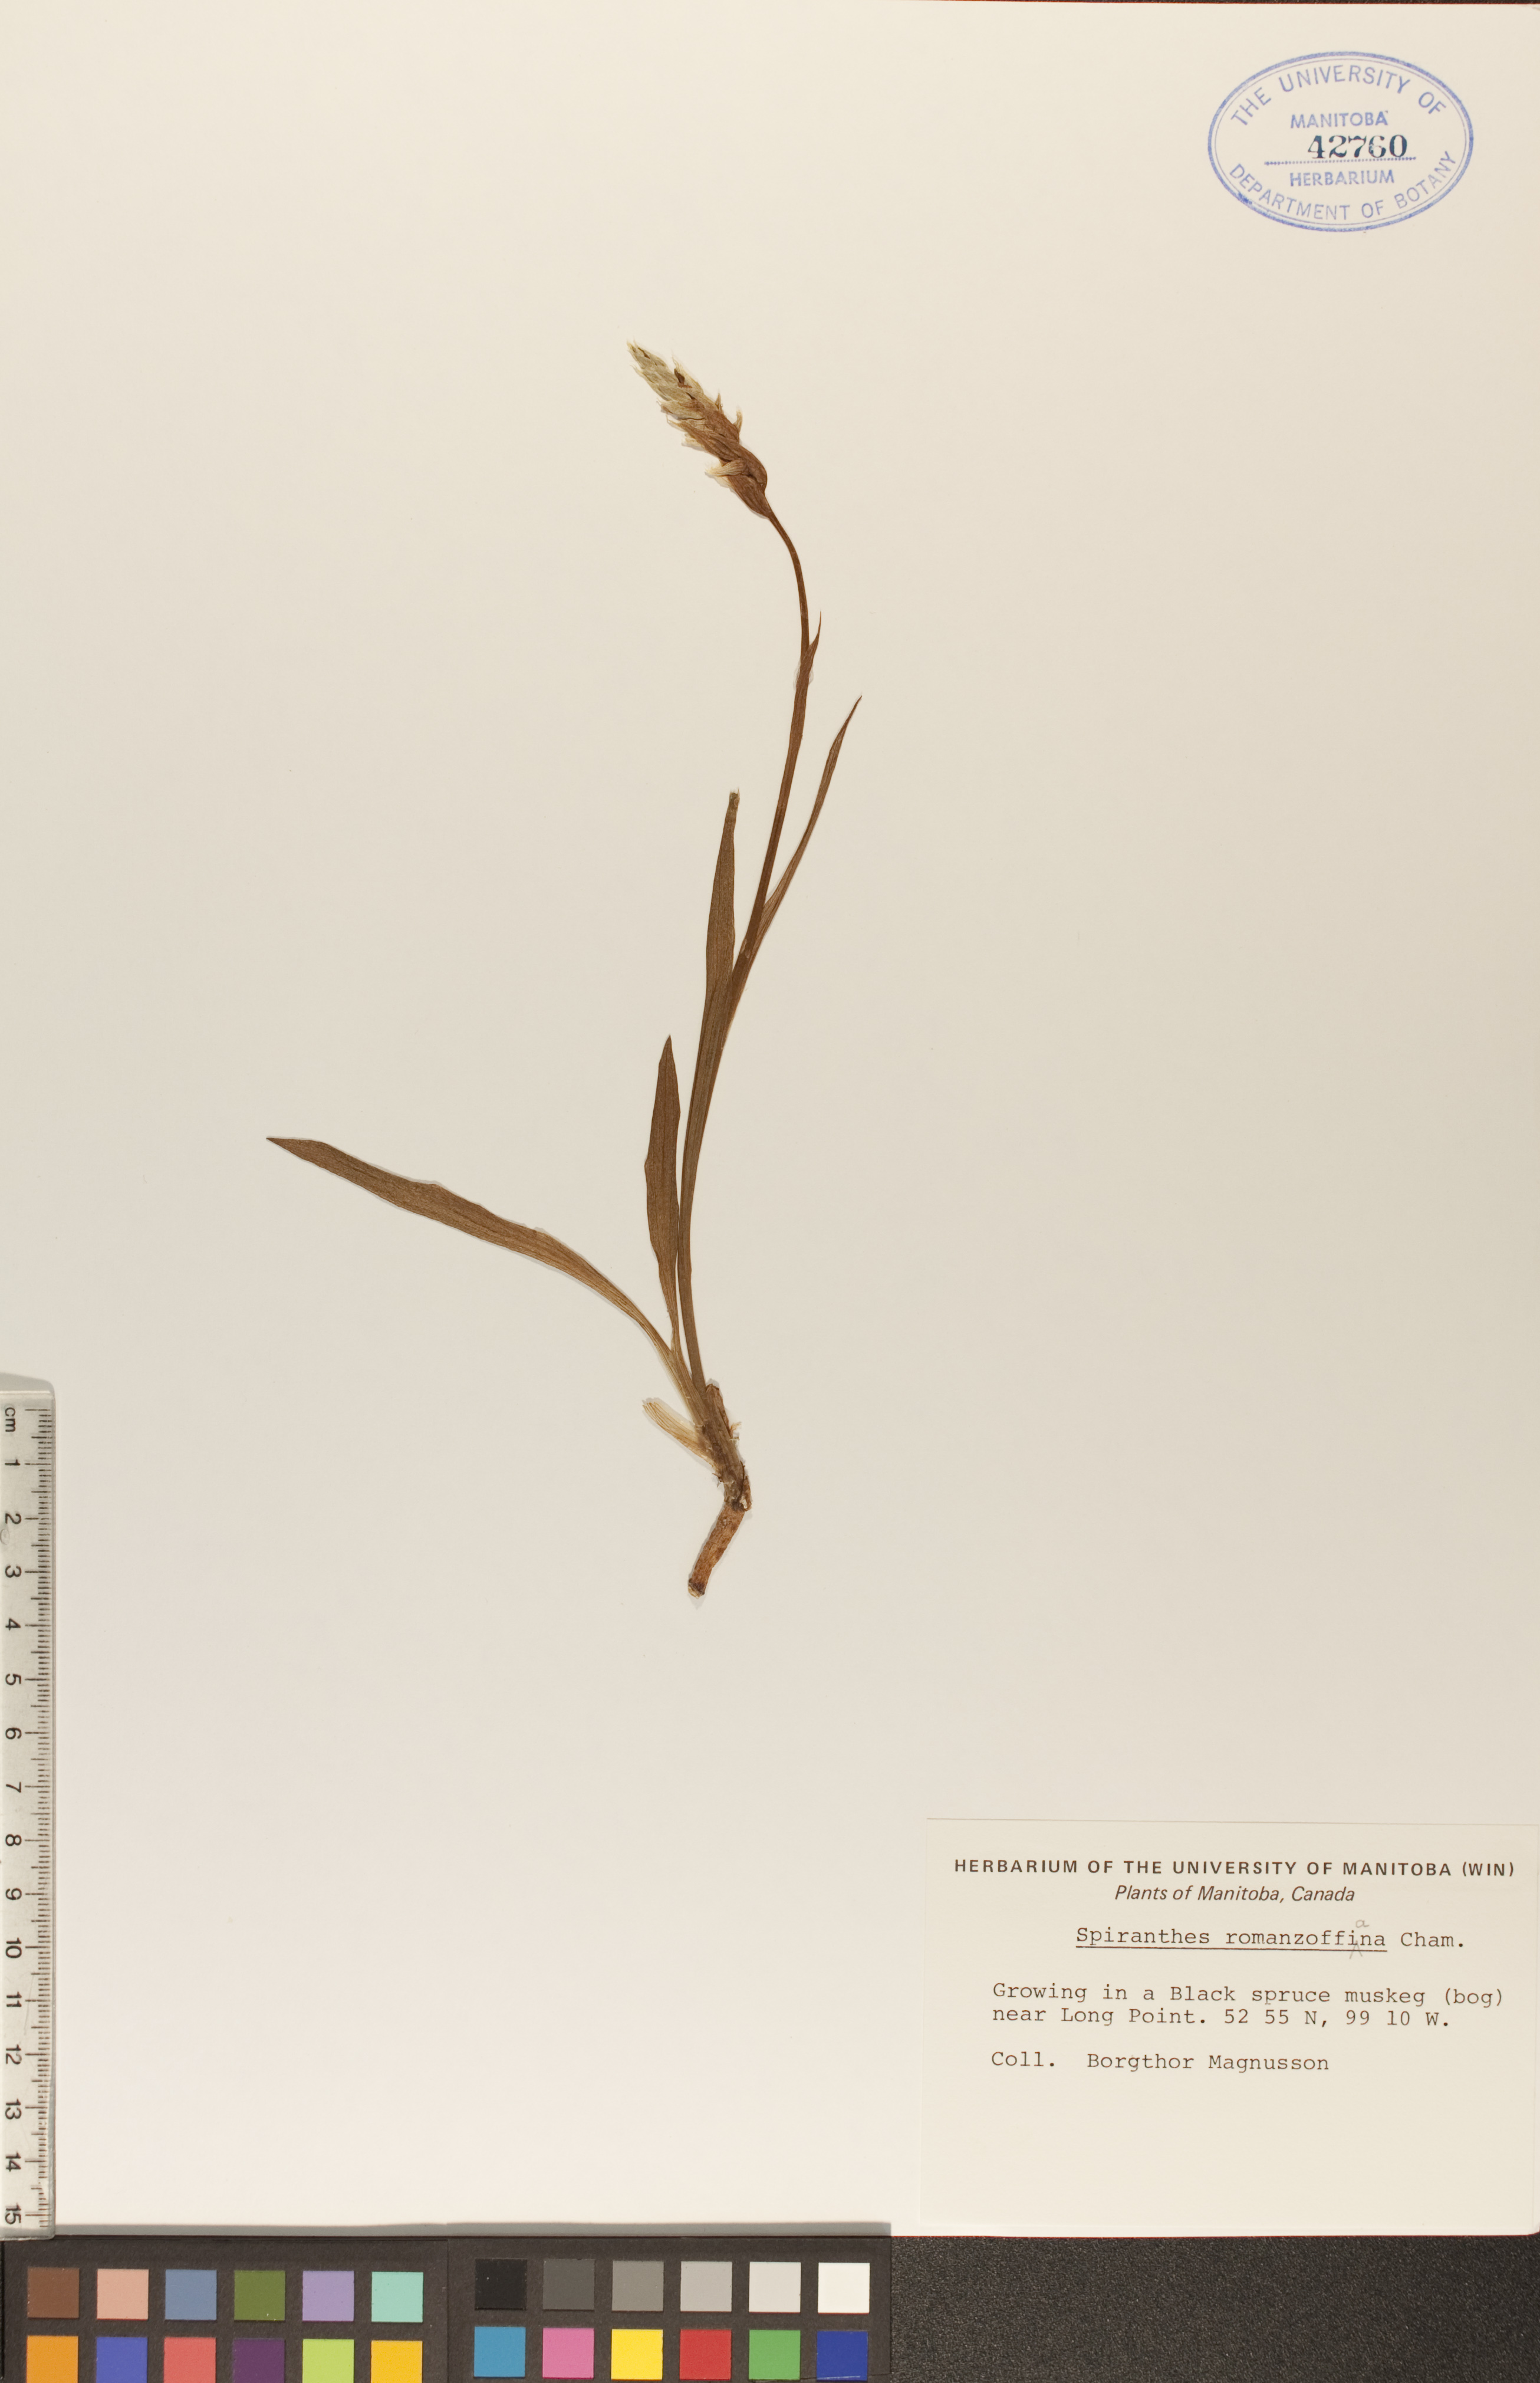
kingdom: Plantae
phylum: Tracheophyta
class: Liliopsida
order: Asparagales
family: Orchidaceae
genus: Spiranthes
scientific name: Spiranthes romanzoffiana
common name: Irish lady's-tresses
